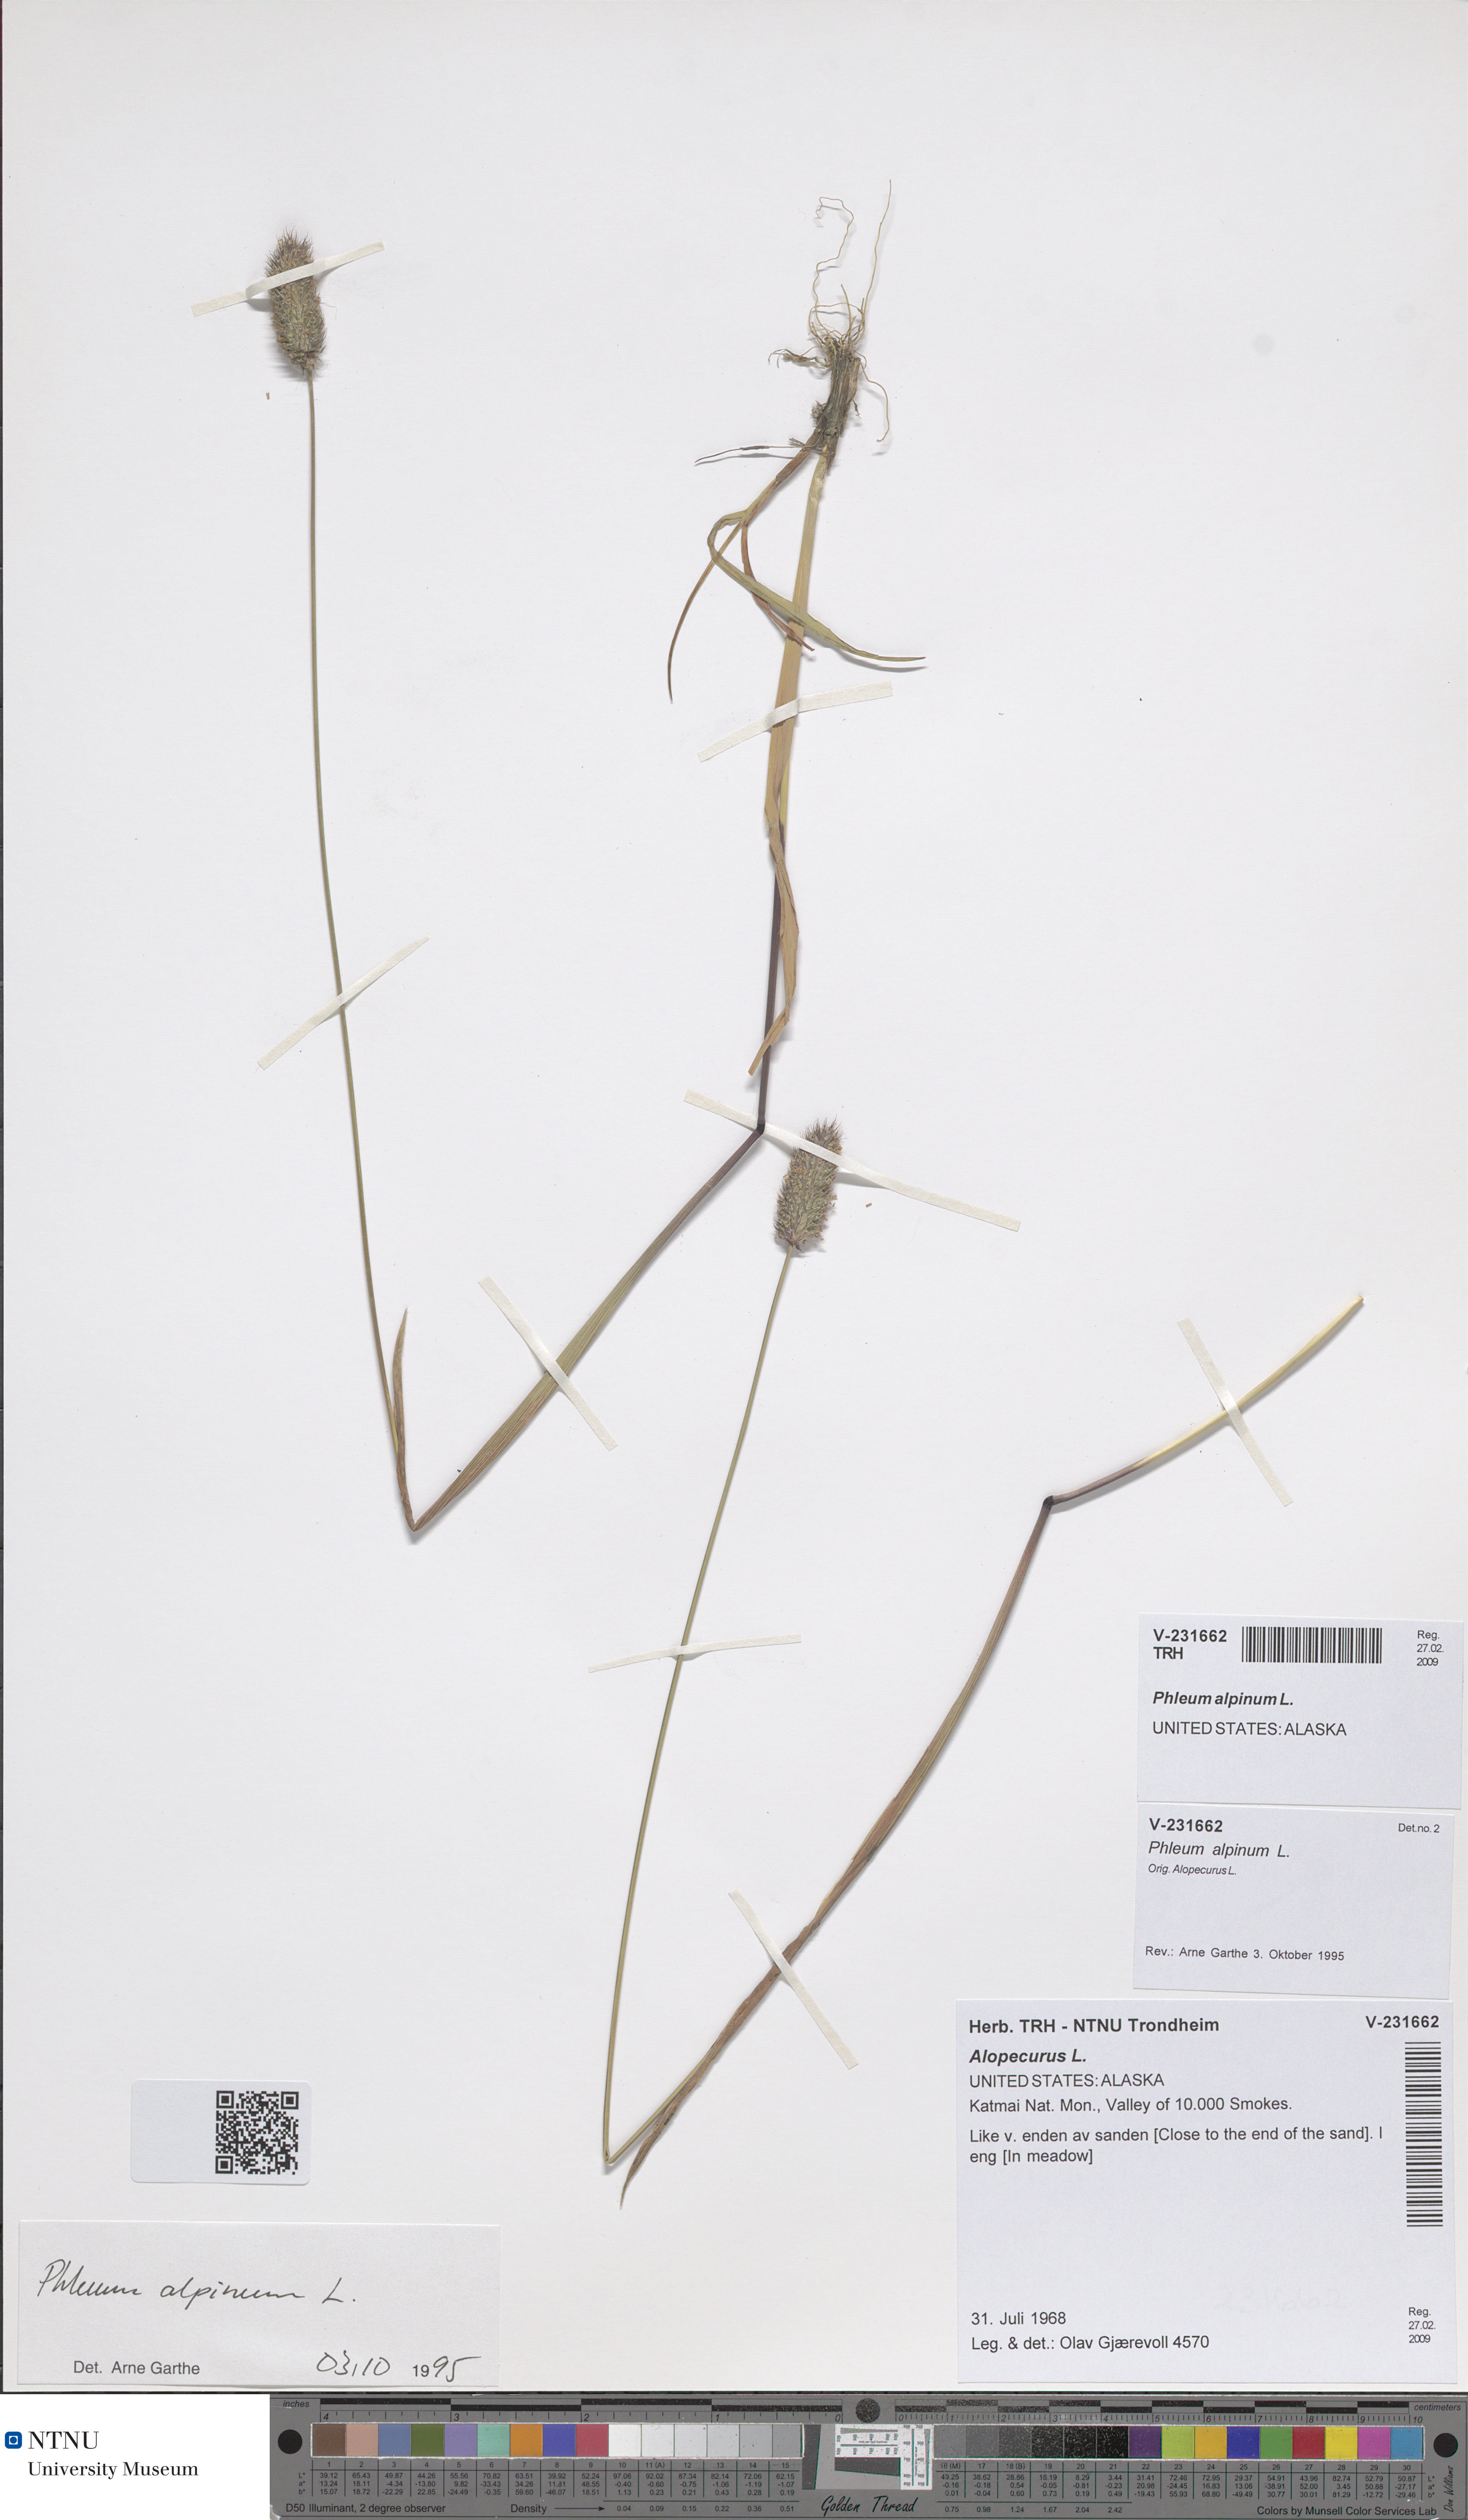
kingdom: Plantae
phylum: Tracheophyta
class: Liliopsida
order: Poales
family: Poaceae
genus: Phleum
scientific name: Phleum alpinum
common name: Alpine cat's-tail
